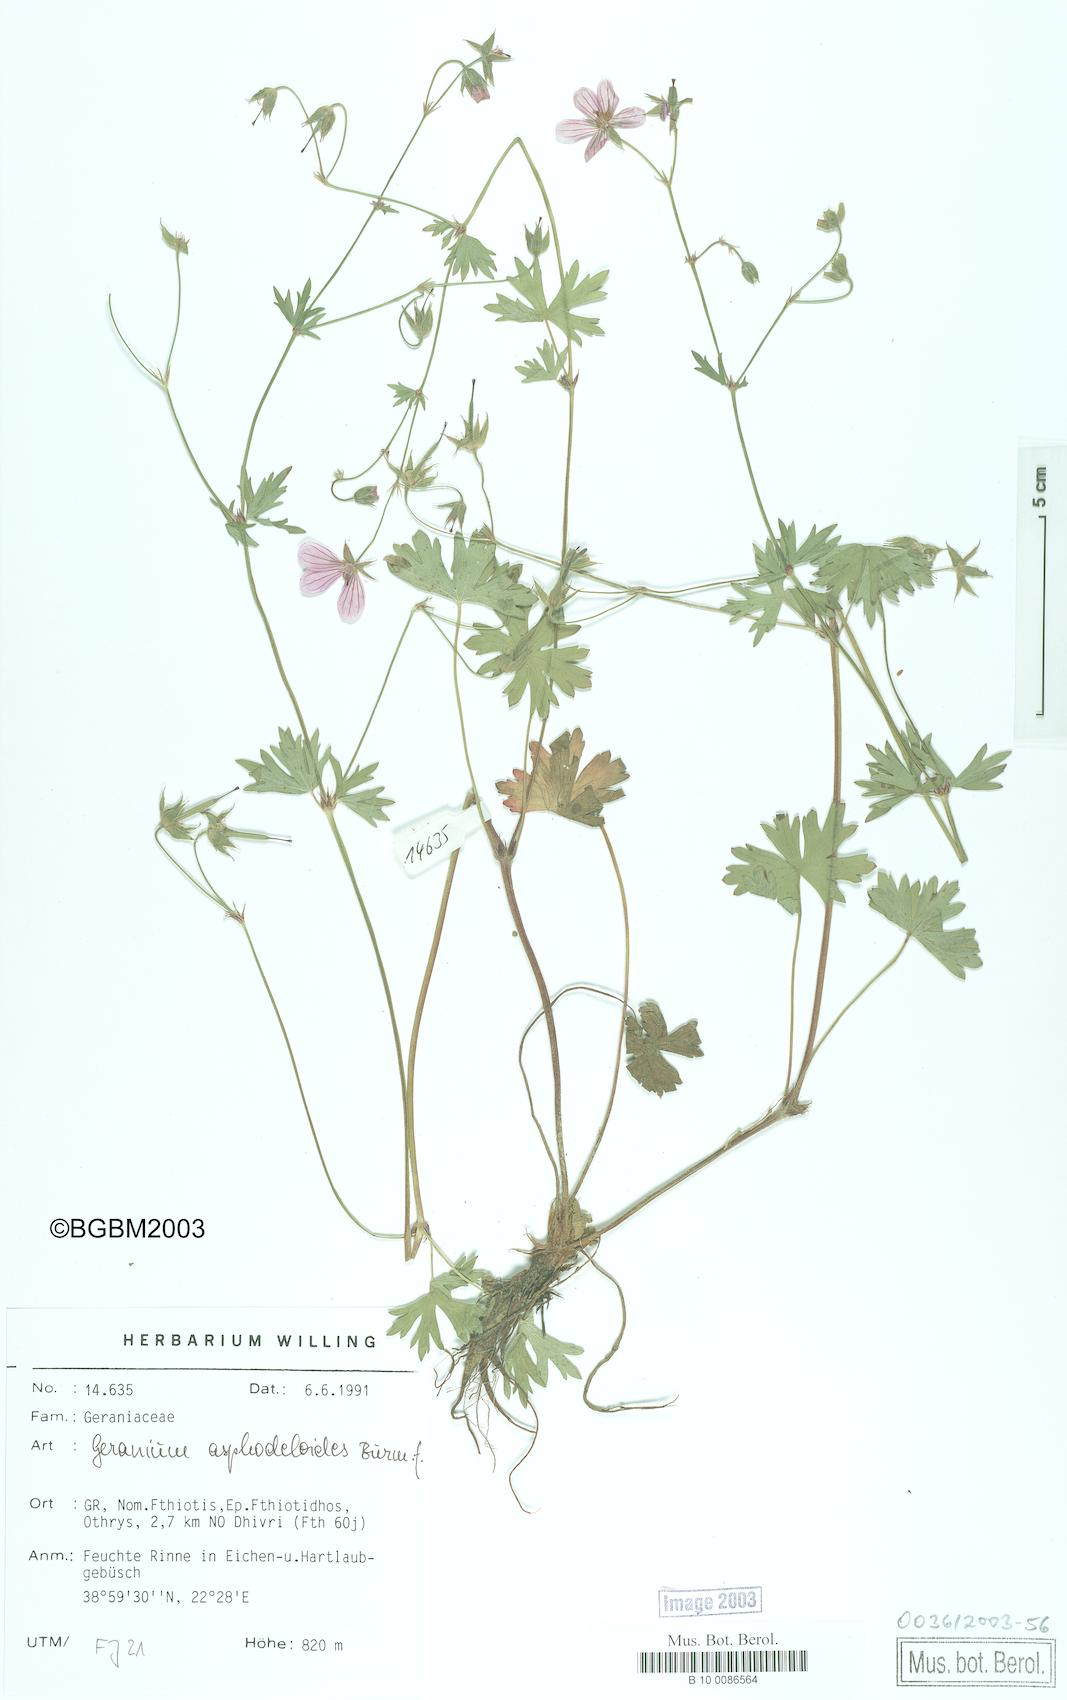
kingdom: Plantae
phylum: Tracheophyta
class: Magnoliopsida
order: Geraniales
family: Geraniaceae
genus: Geranium
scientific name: Geranium asphodeloides
